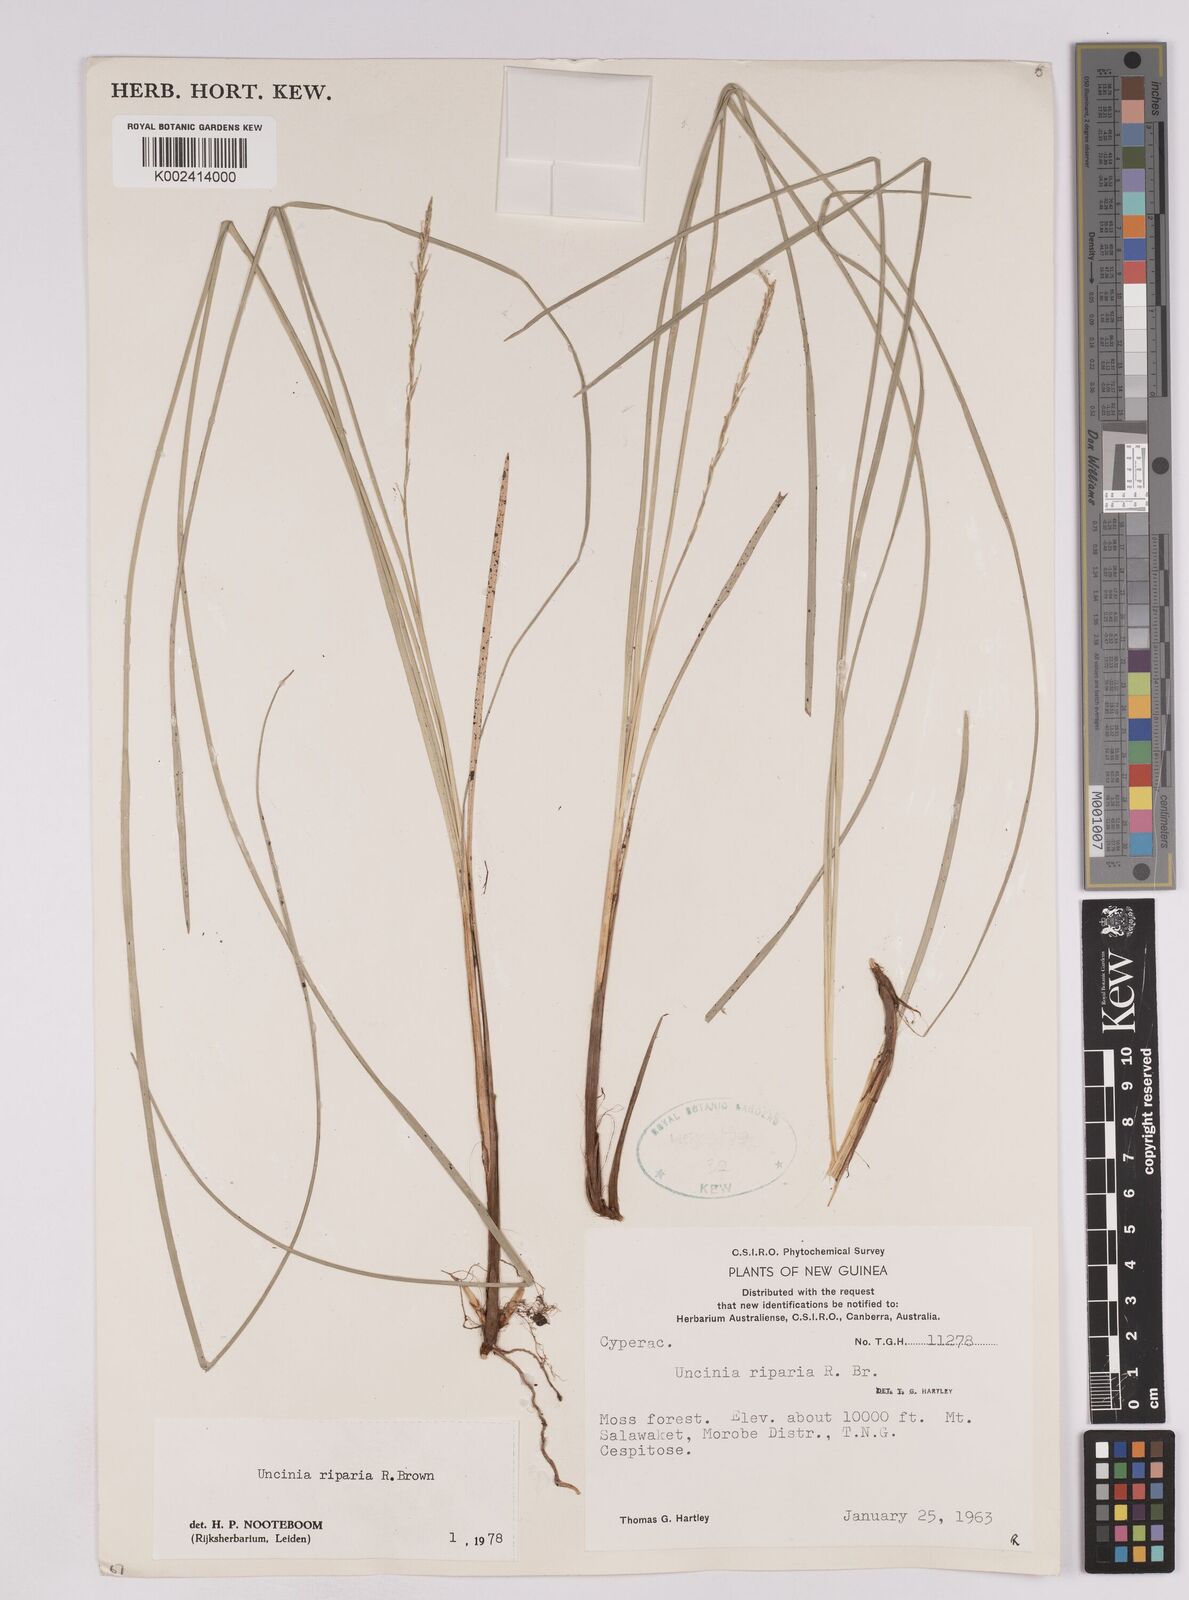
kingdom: Plantae
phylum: Tracheophyta
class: Liliopsida
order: Poales
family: Cyperaceae
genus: Carex
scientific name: Carex sclerophylla
